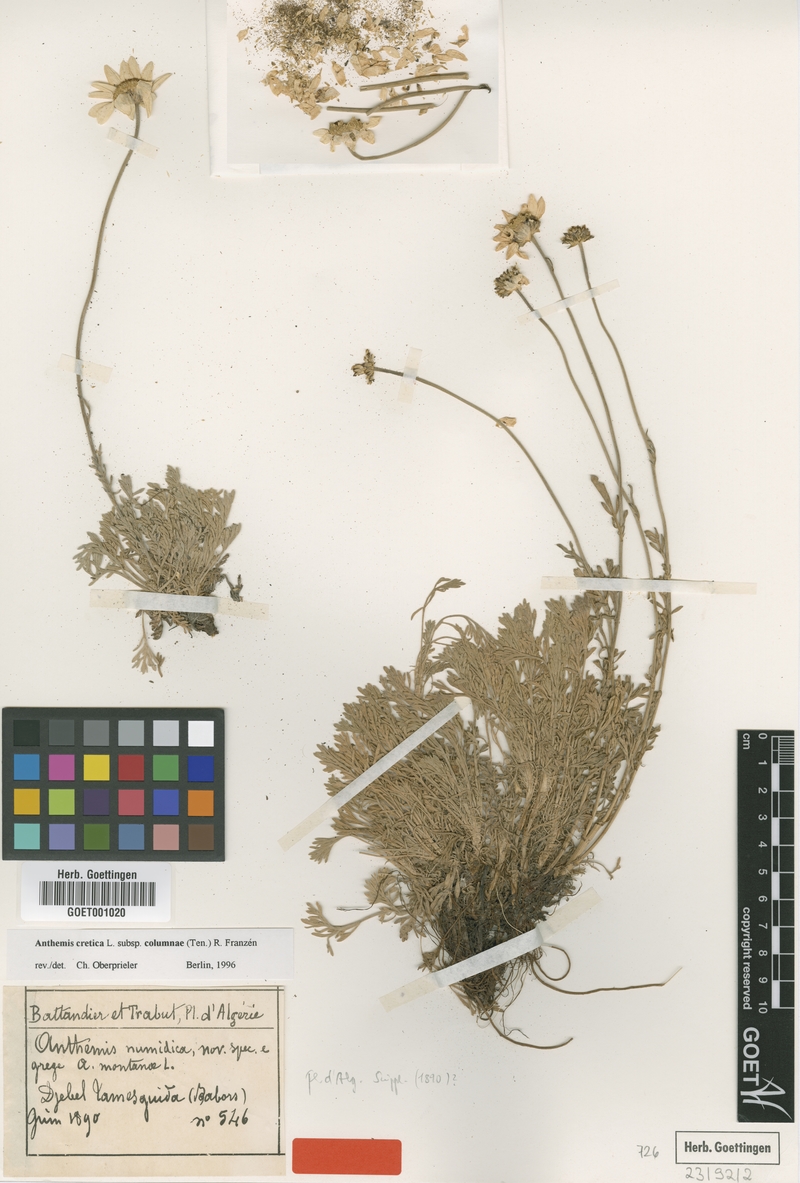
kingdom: Plantae
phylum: Tracheophyta
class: Magnoliopsida
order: Asterales
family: Asteraceae
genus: Anthemis
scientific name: Anthemis cretica
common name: Mountain dog-daisy
